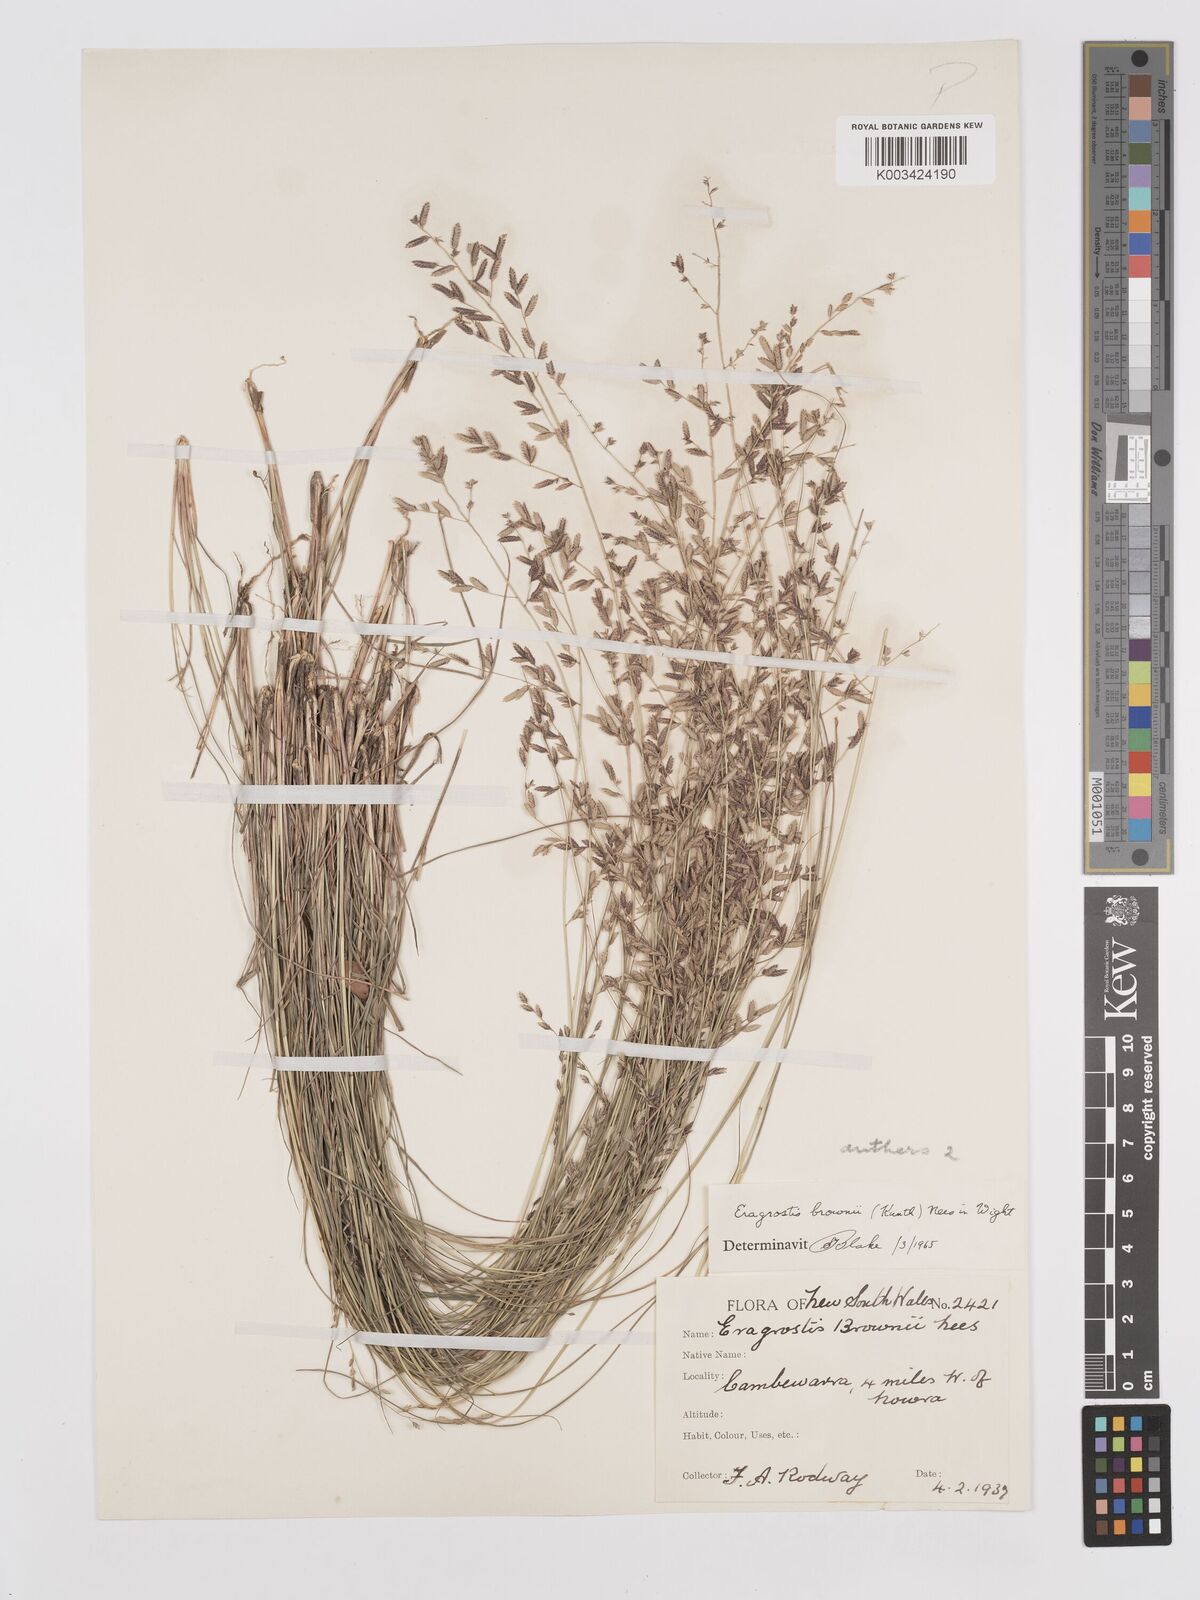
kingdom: Plantae
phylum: Tracheophyta
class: Liliopsida
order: Poales
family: Poaceae
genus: Eragrostis
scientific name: Eragrostis brownii
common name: Lovegrass
